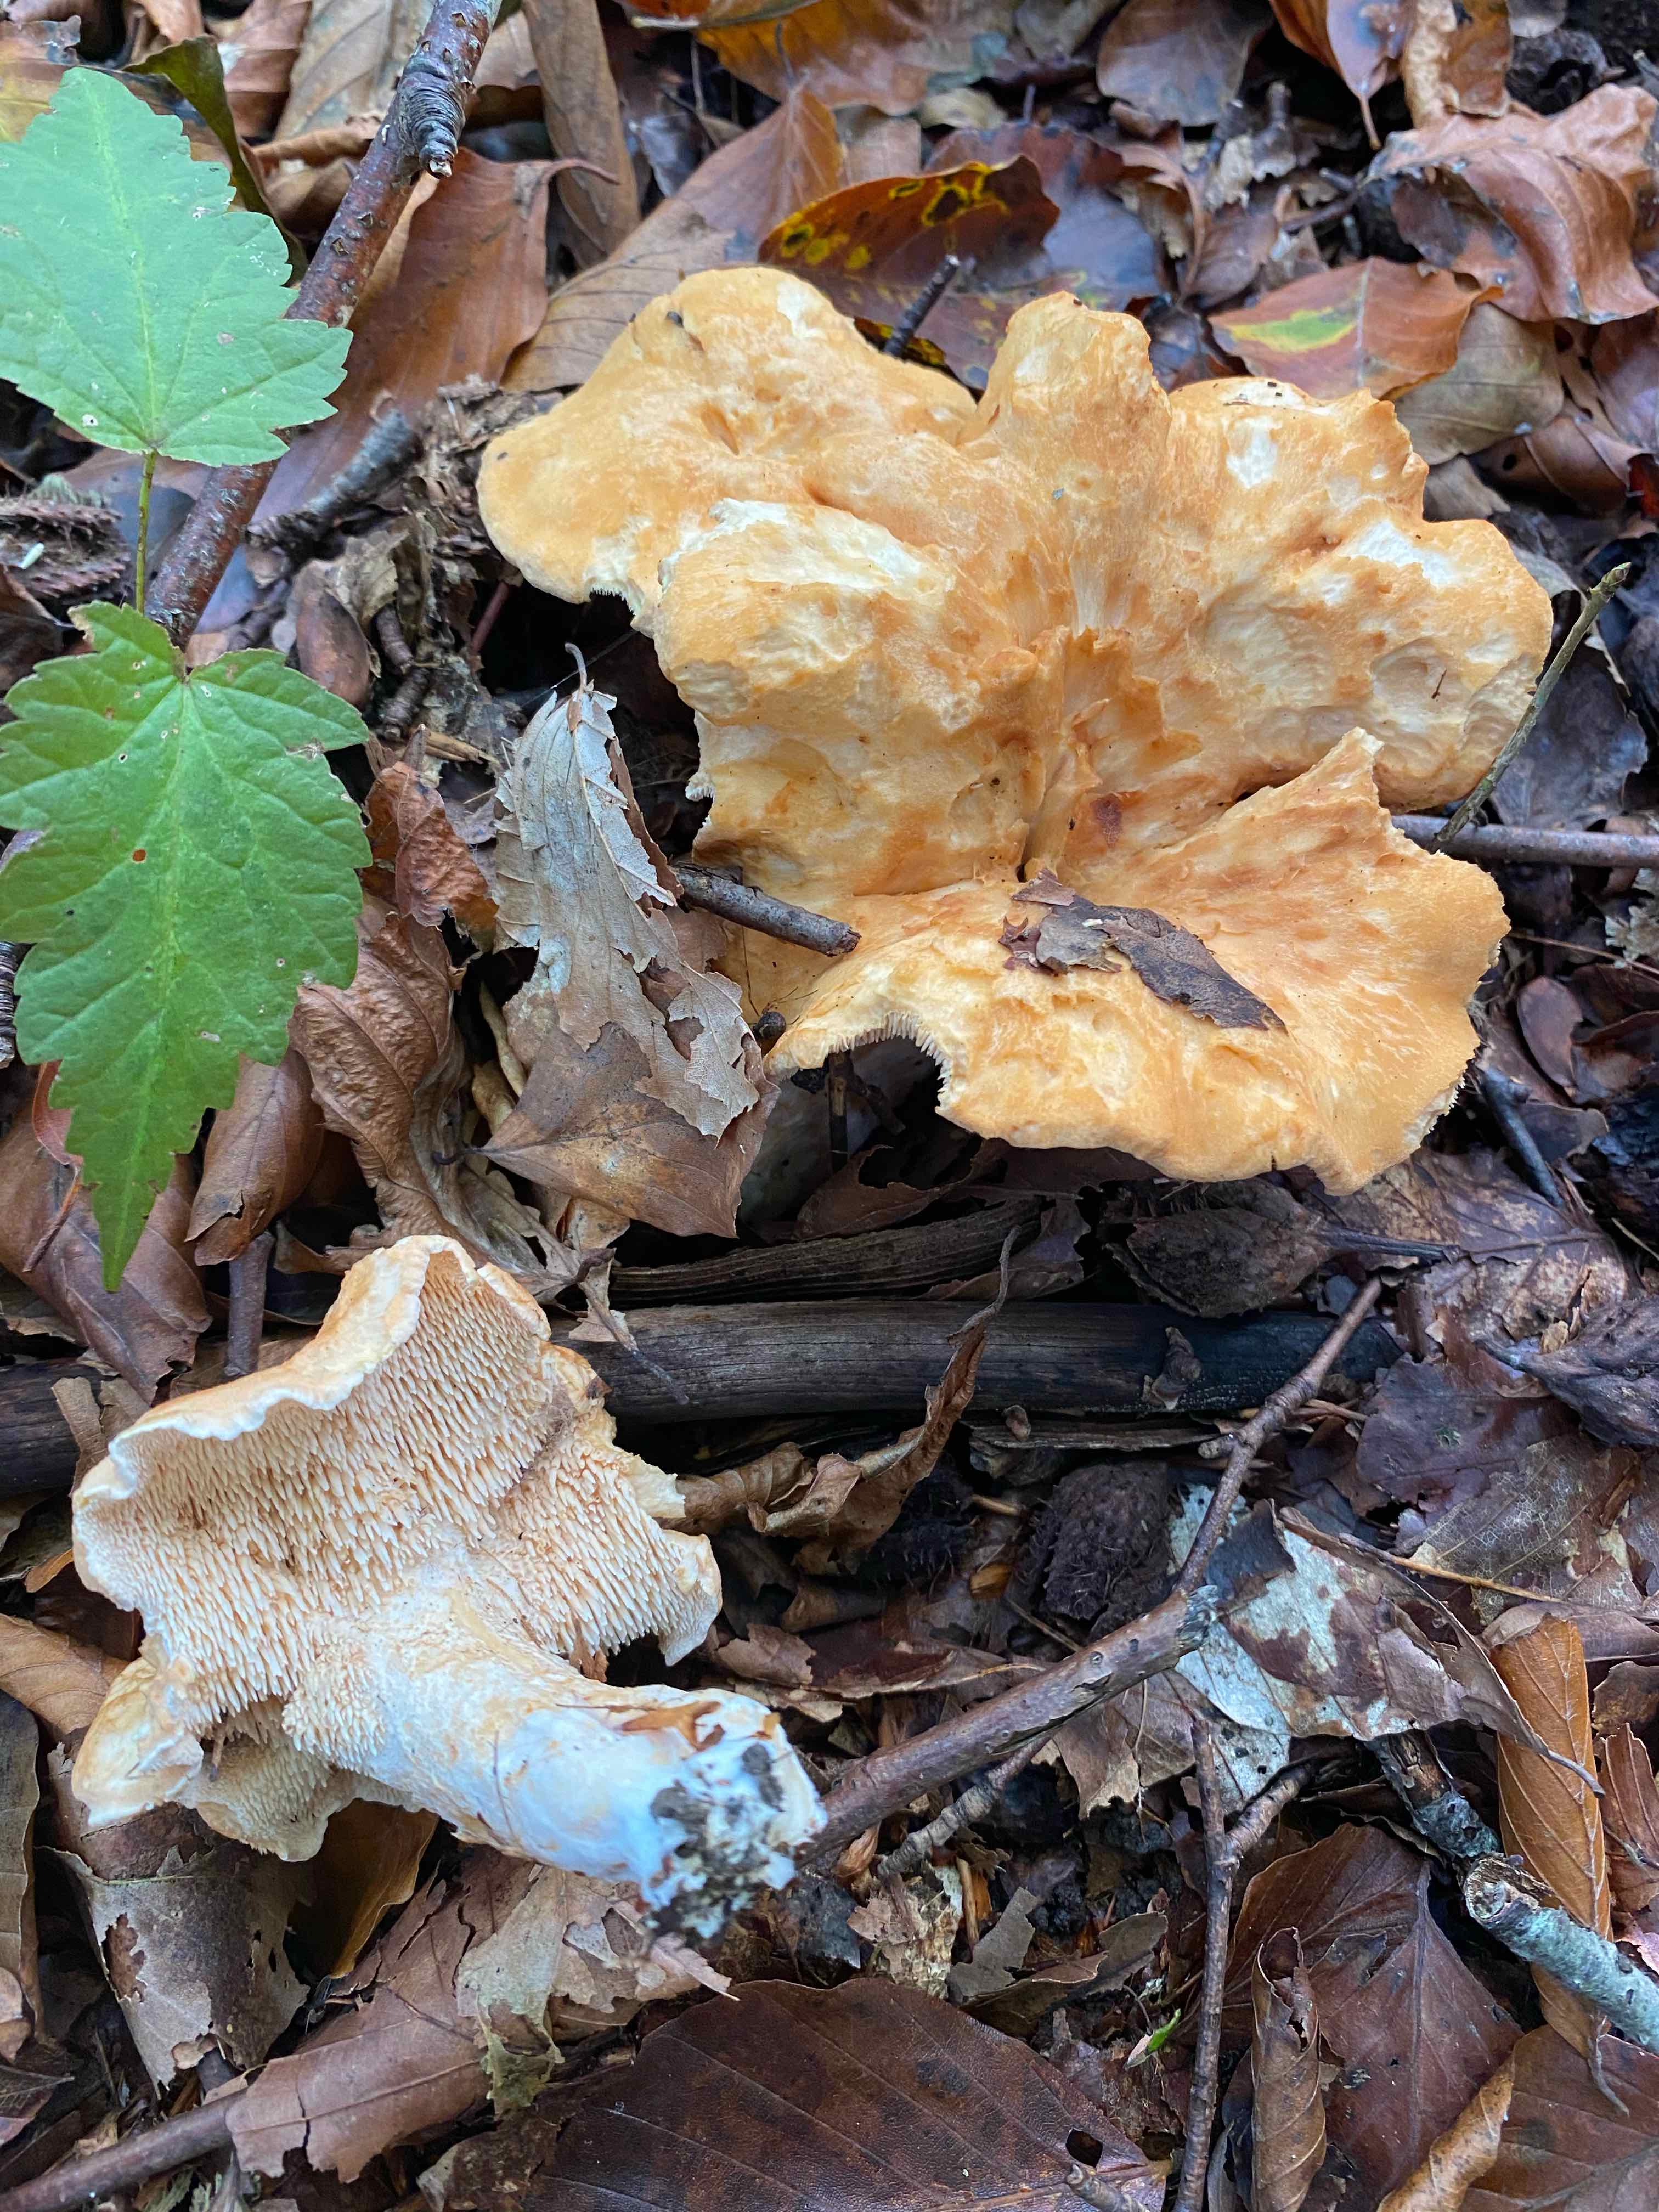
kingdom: Fungi
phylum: Basidiomycota
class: Agaricomycetes
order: Cantharellales
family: Hydnaceae
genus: Hydnum
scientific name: Hydnum
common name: pigsvamp
